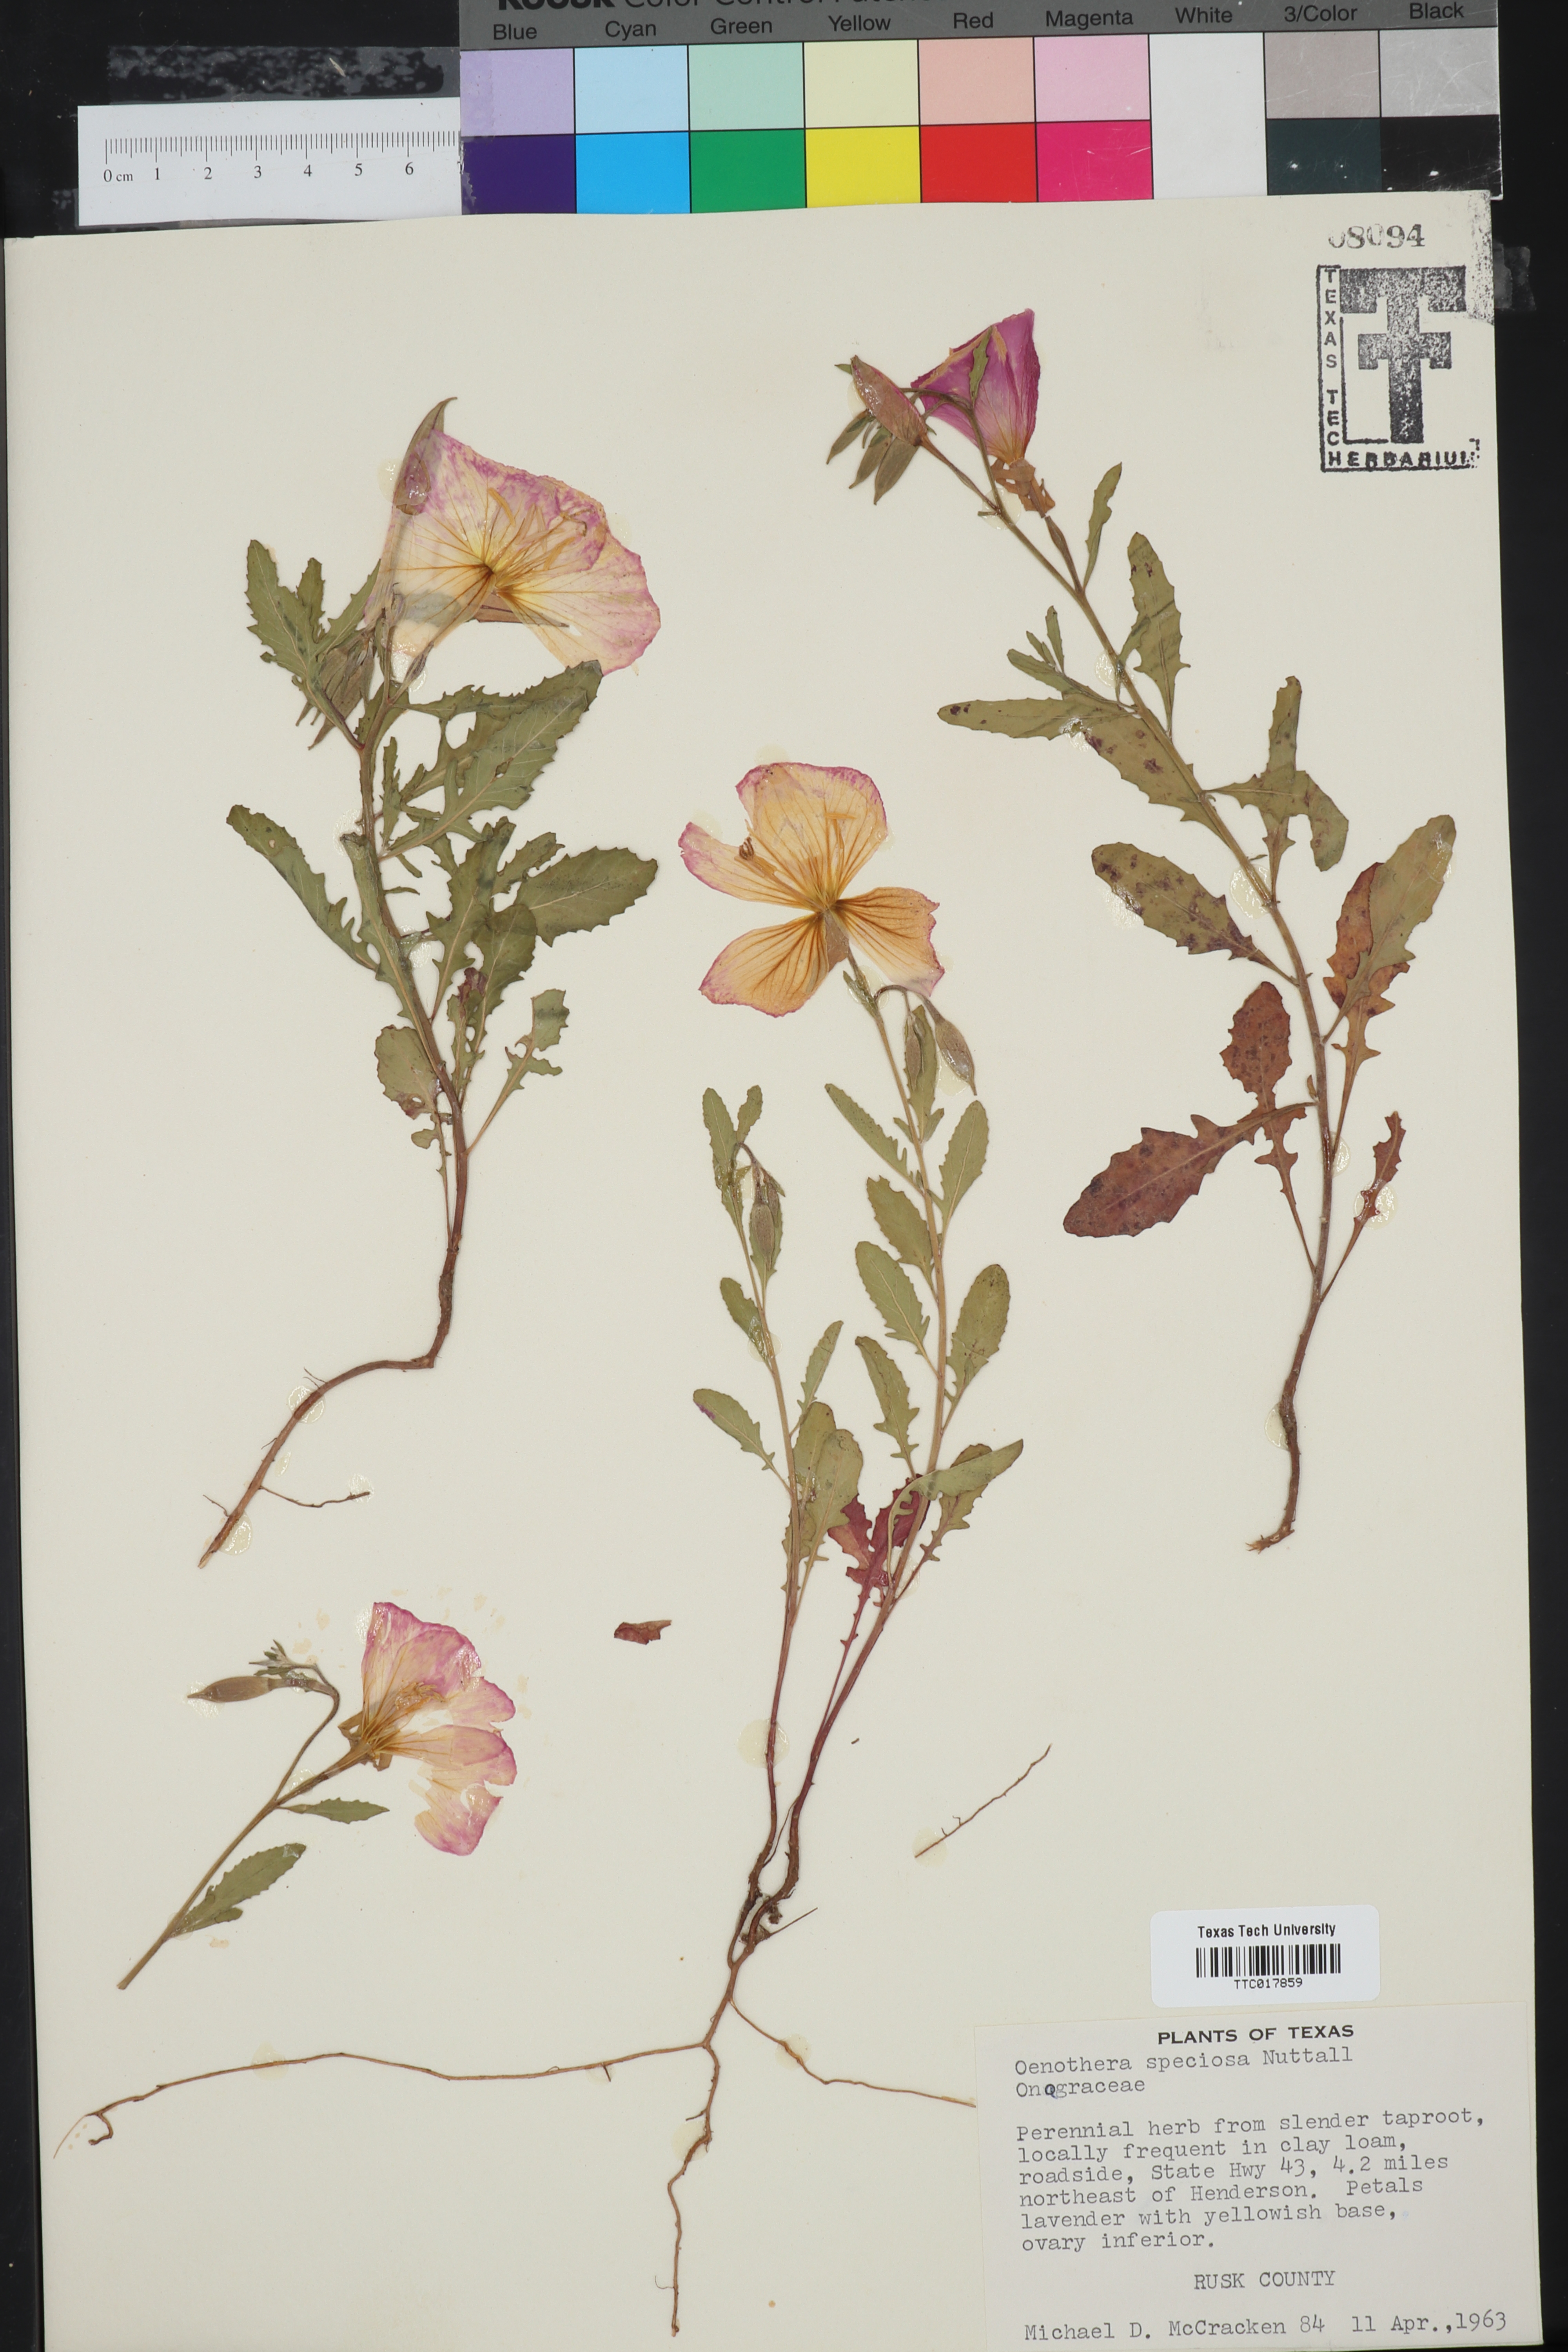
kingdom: Plantae
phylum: Tracheophyta
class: Magnoliopsida
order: Myrtales
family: Onagraceae
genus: Oenothera
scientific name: Oenothera speciosa
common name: White evening-primrose
